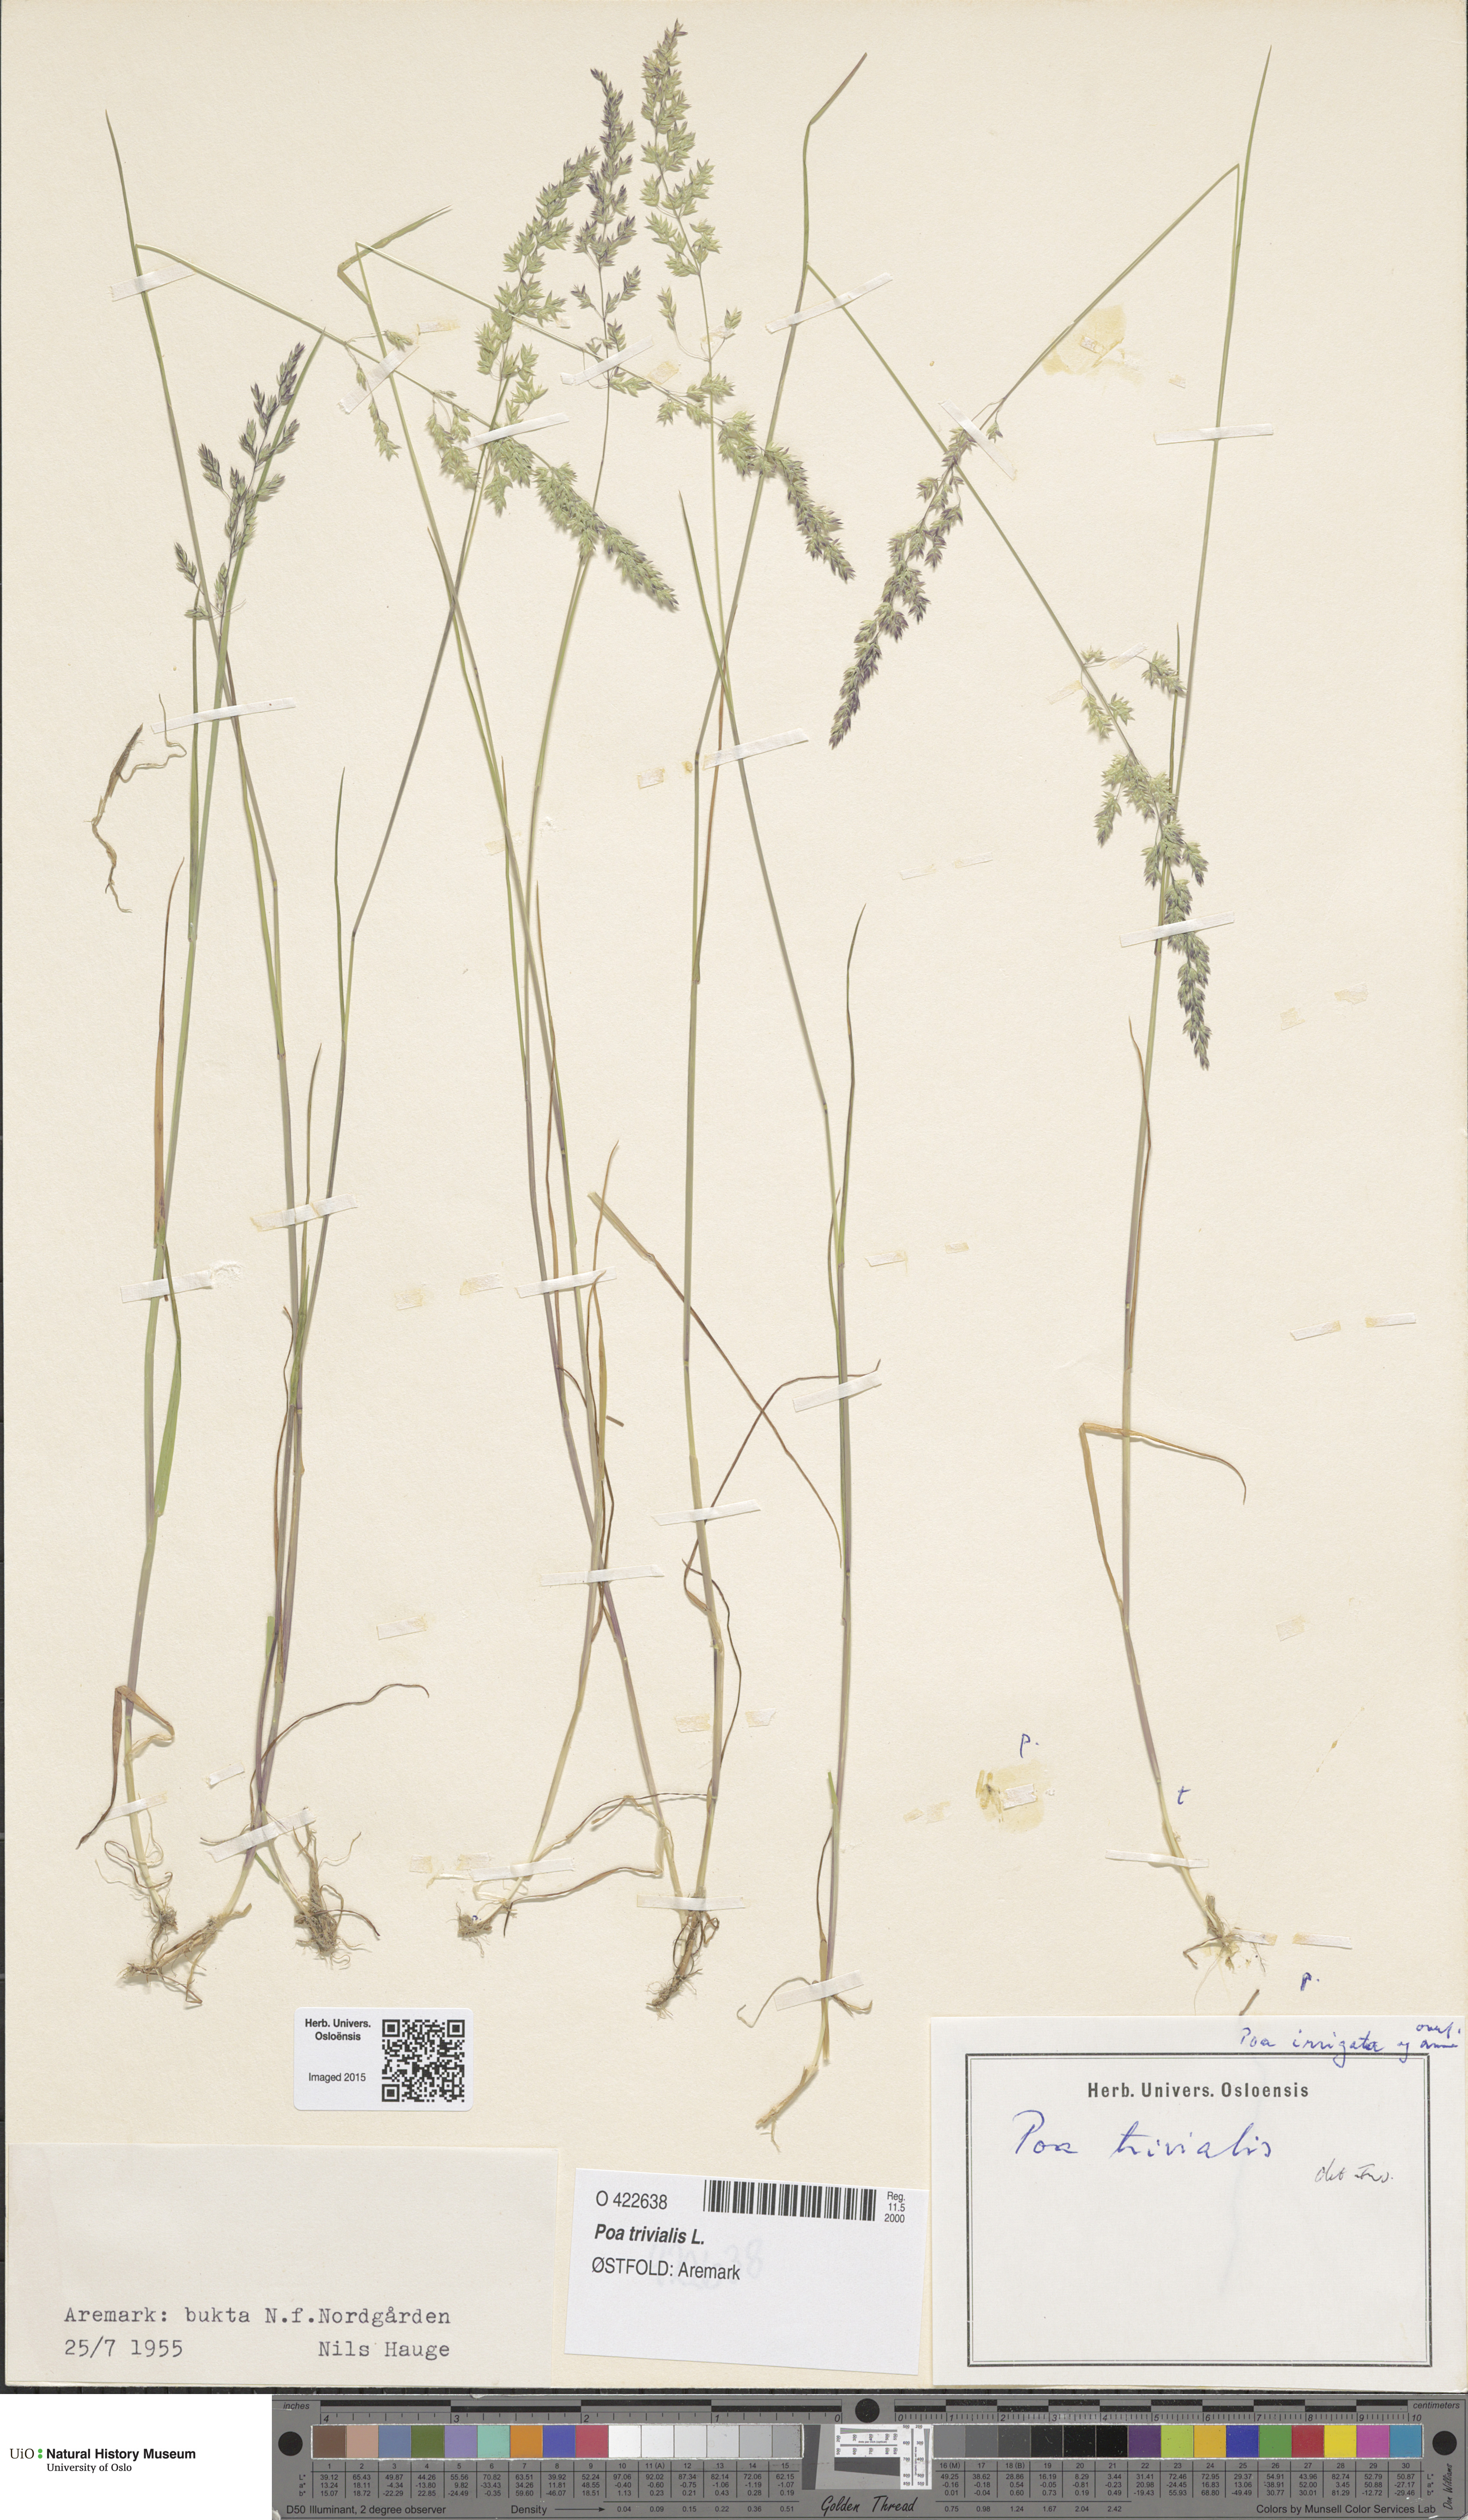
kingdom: Plantae
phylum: Tracheophyta
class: Liliopsida
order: Poales
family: Poaceae
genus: Poa
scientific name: Poa trivialis
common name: Rough bluegrass
